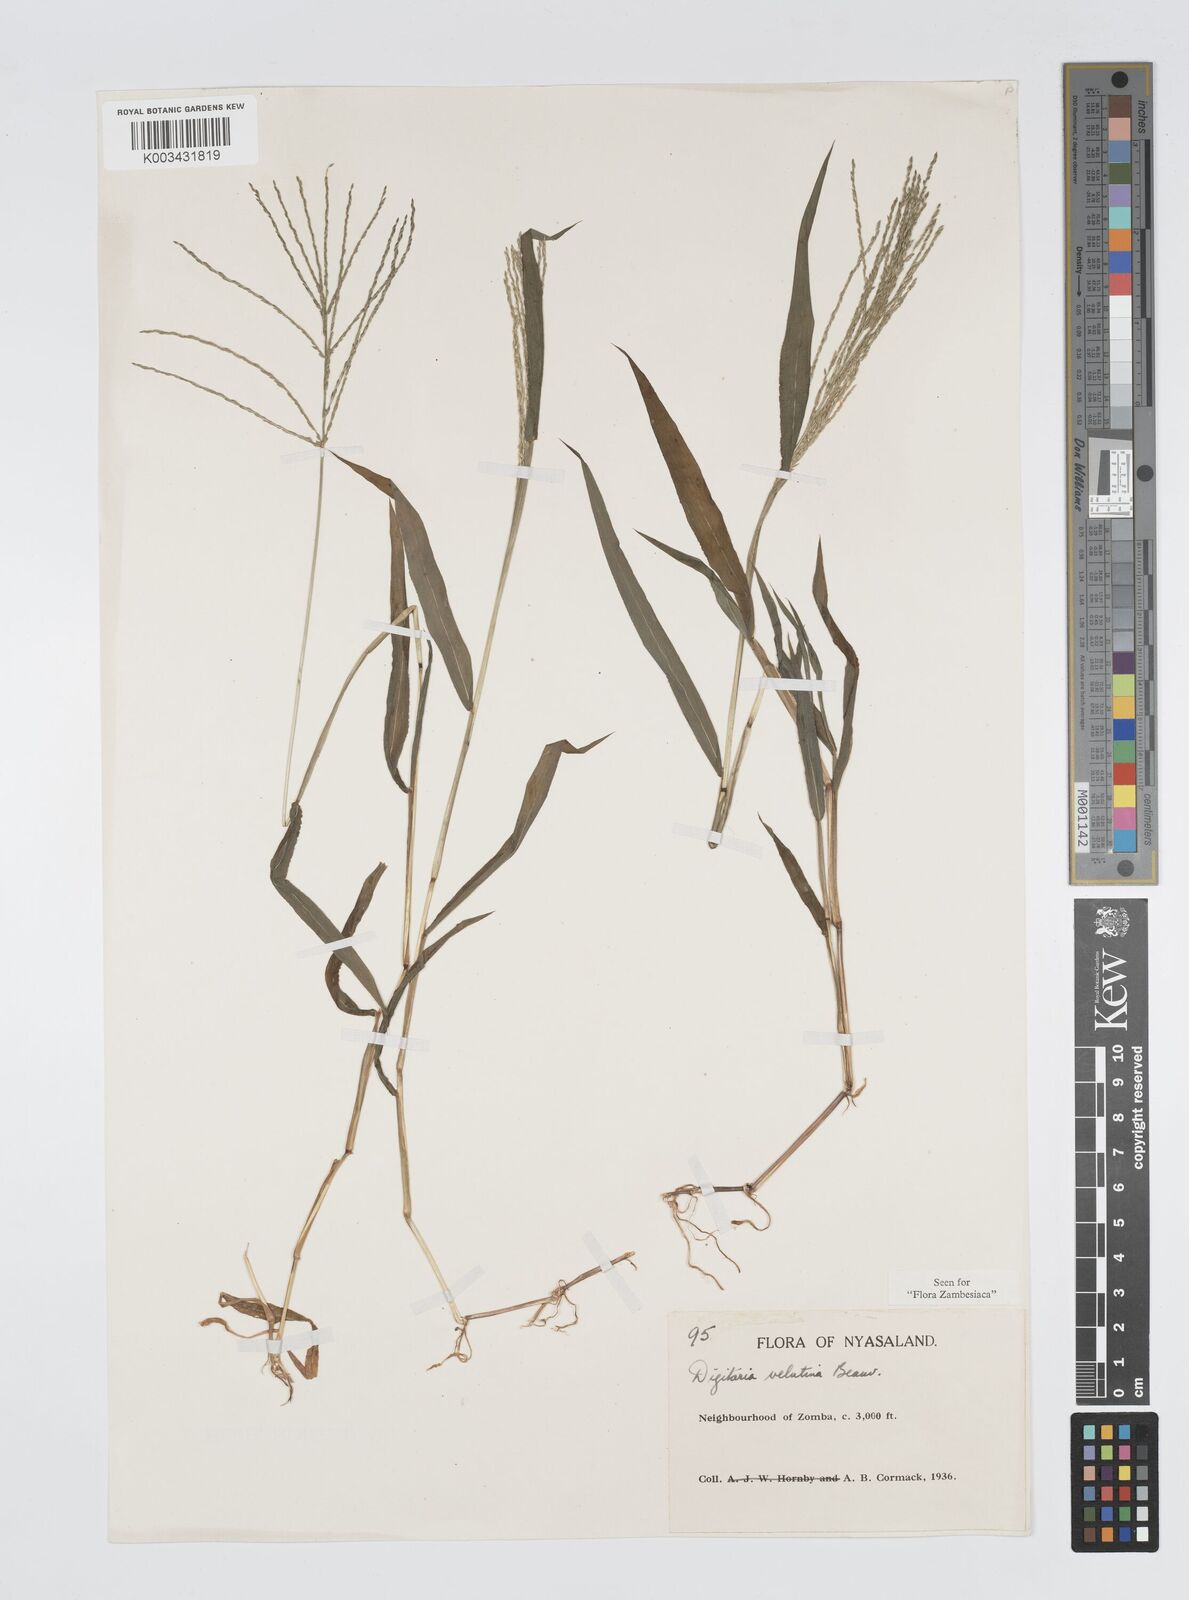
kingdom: Plantae
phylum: Tracheophyta
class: Liliopsida
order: Poales
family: Poaceae
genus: Digitaria
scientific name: Digitaria velutina
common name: Long-plume finger grass
